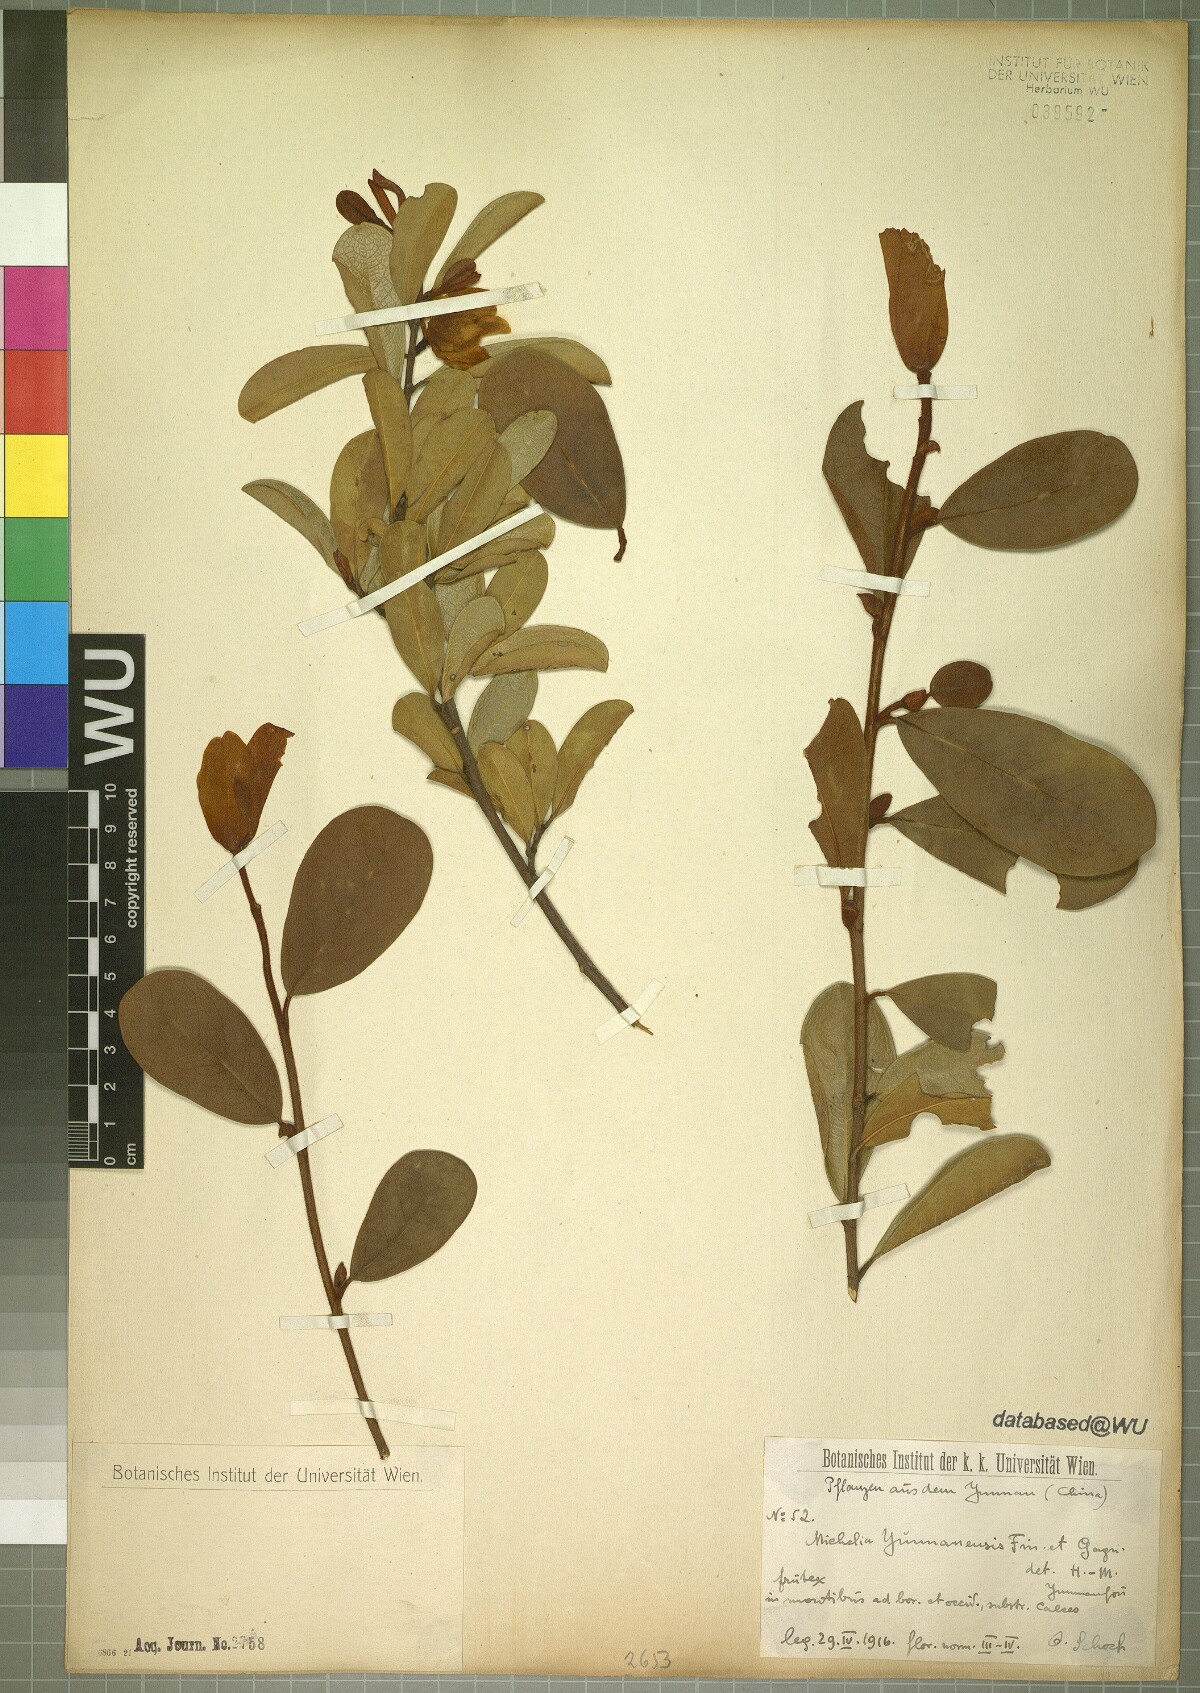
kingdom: Plantae
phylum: Tracheophyta
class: Magnoliopsida
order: Magnoliales
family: Magnoliaceae
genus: Magnolia
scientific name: Magnolia laevifolia
